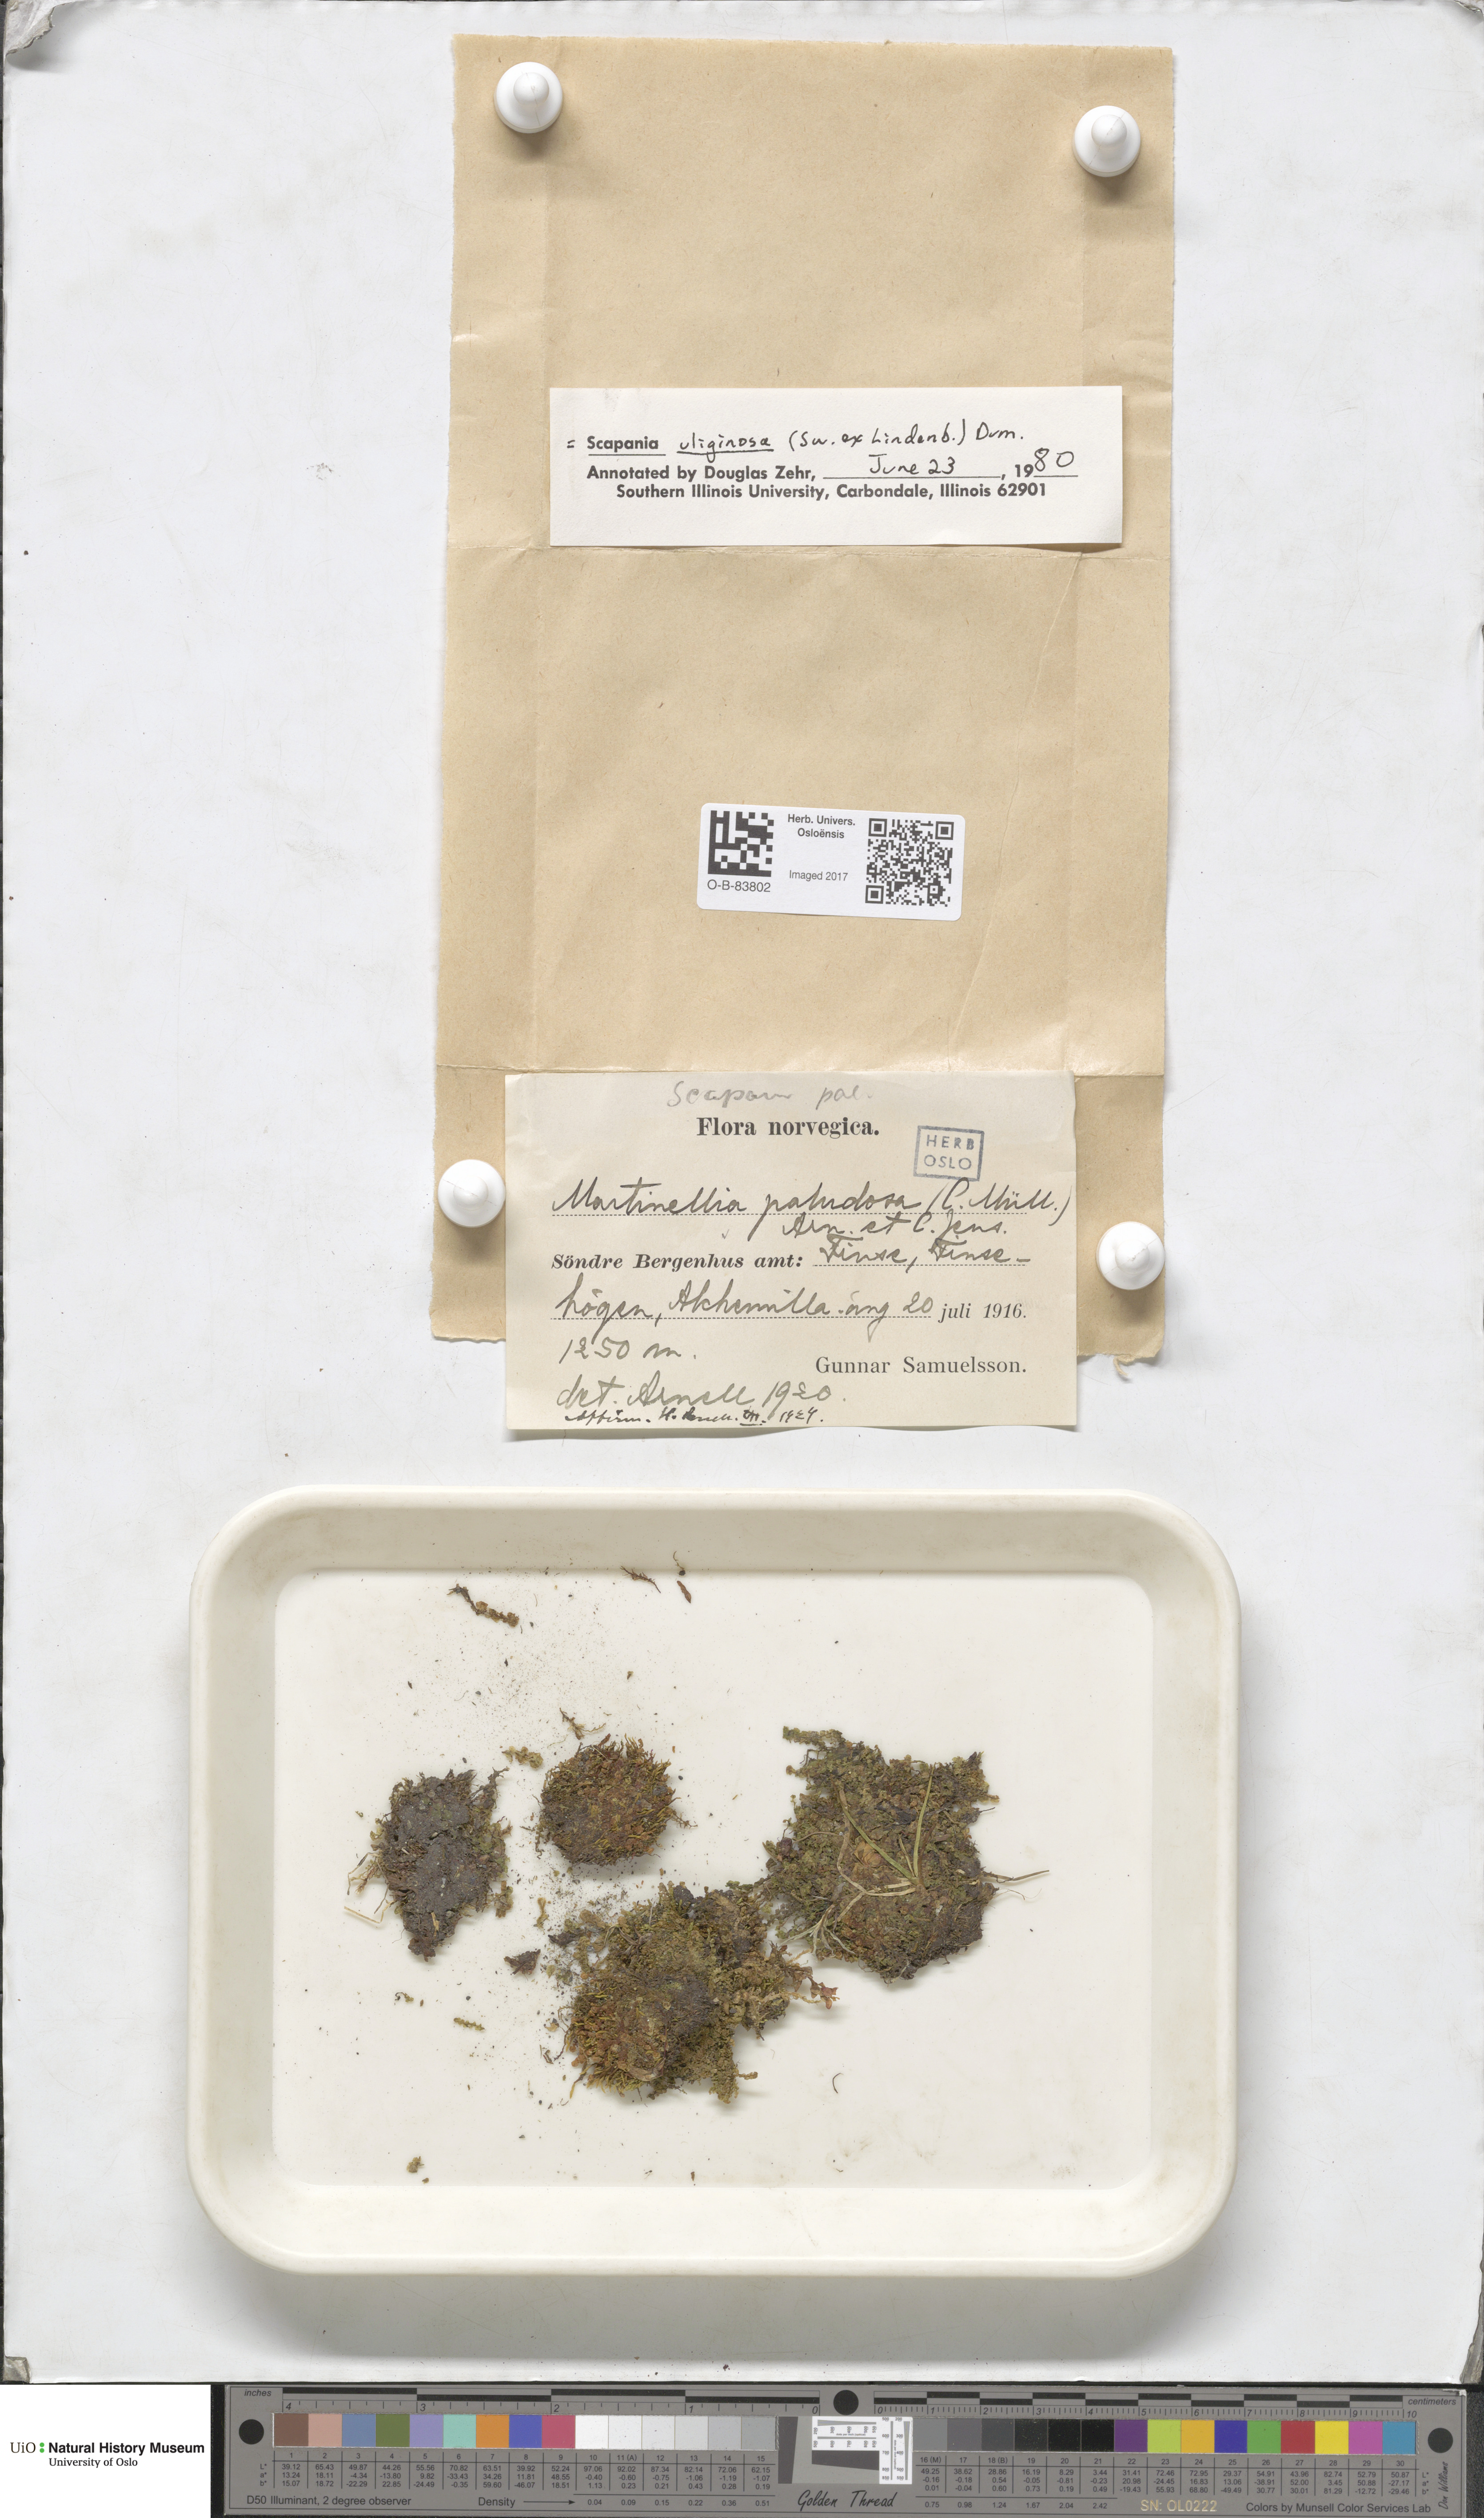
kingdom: Plantae
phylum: Marchantiophyta
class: Jungermanniopsida
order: Jungermanniales
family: Scapaniaceae
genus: Scapania
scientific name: Scapania uliginosa
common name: Marsh earwort
